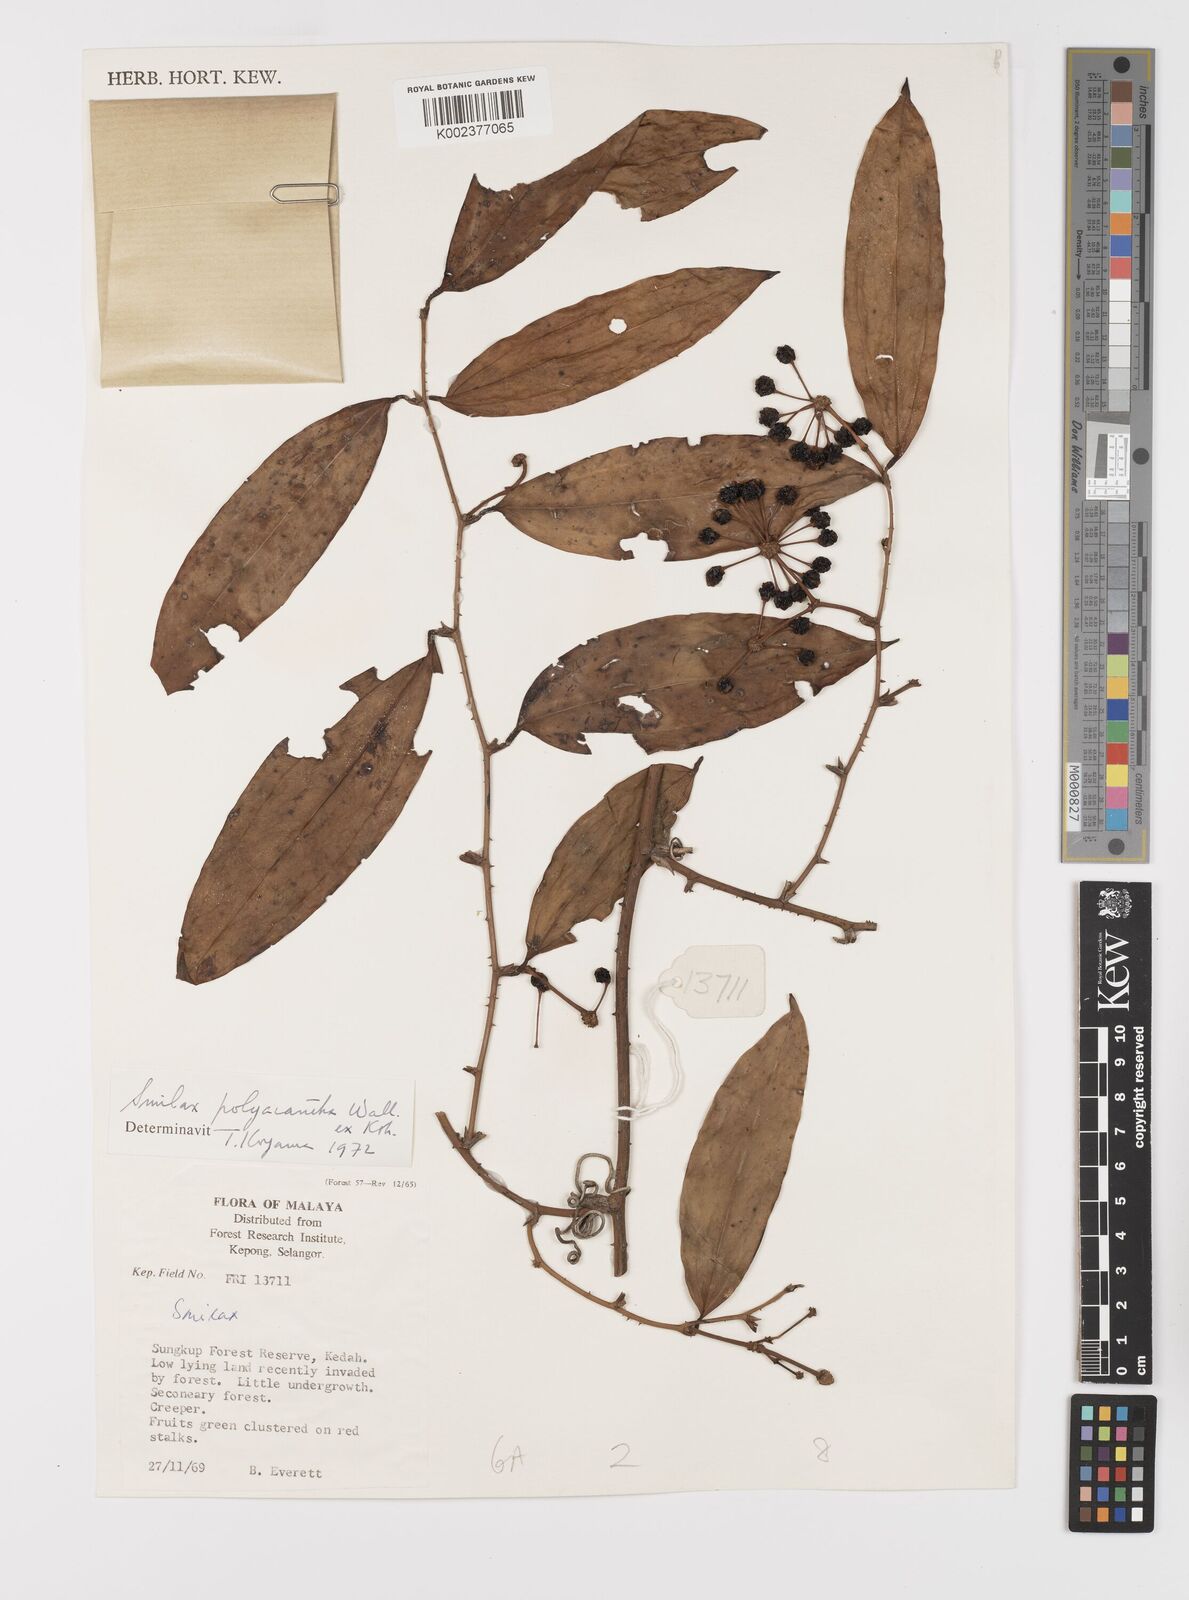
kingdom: Plantae
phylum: Tracheophyta
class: Liliopsida
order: Liliales
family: Smilacaceae
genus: Smilax
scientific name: Smilax polyacantha
